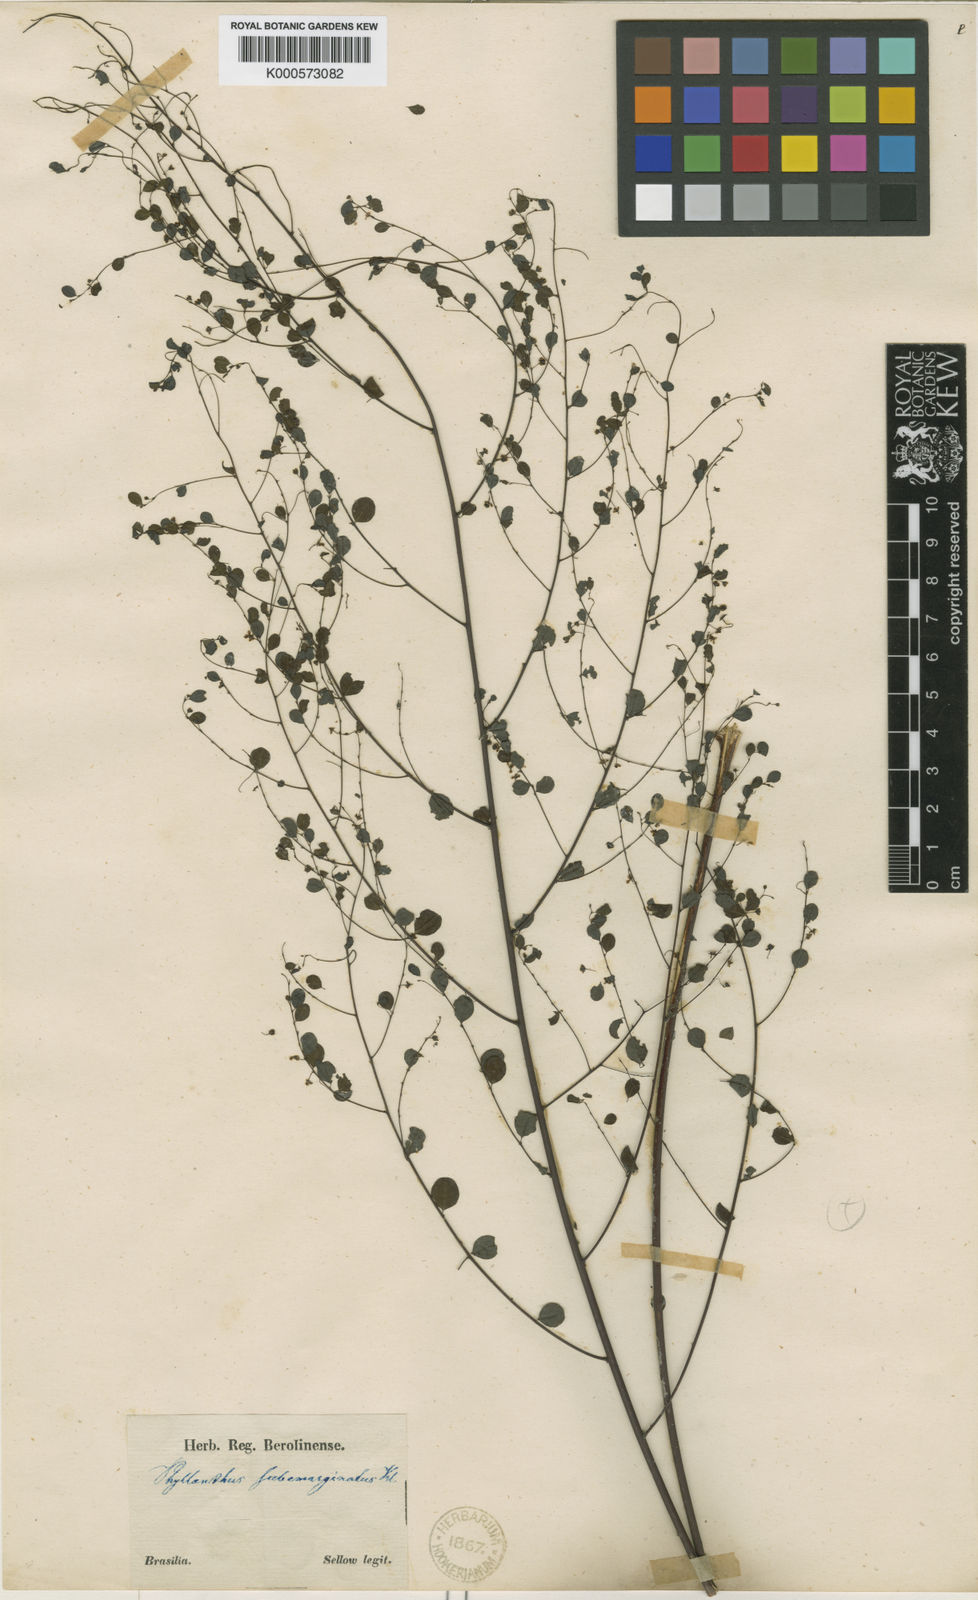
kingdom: Plantae
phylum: Tracheophyta
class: Magnoliopsida
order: Malpighiales
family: Phyllanthaceae
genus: Phyllanthus
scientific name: Phyllanthus
